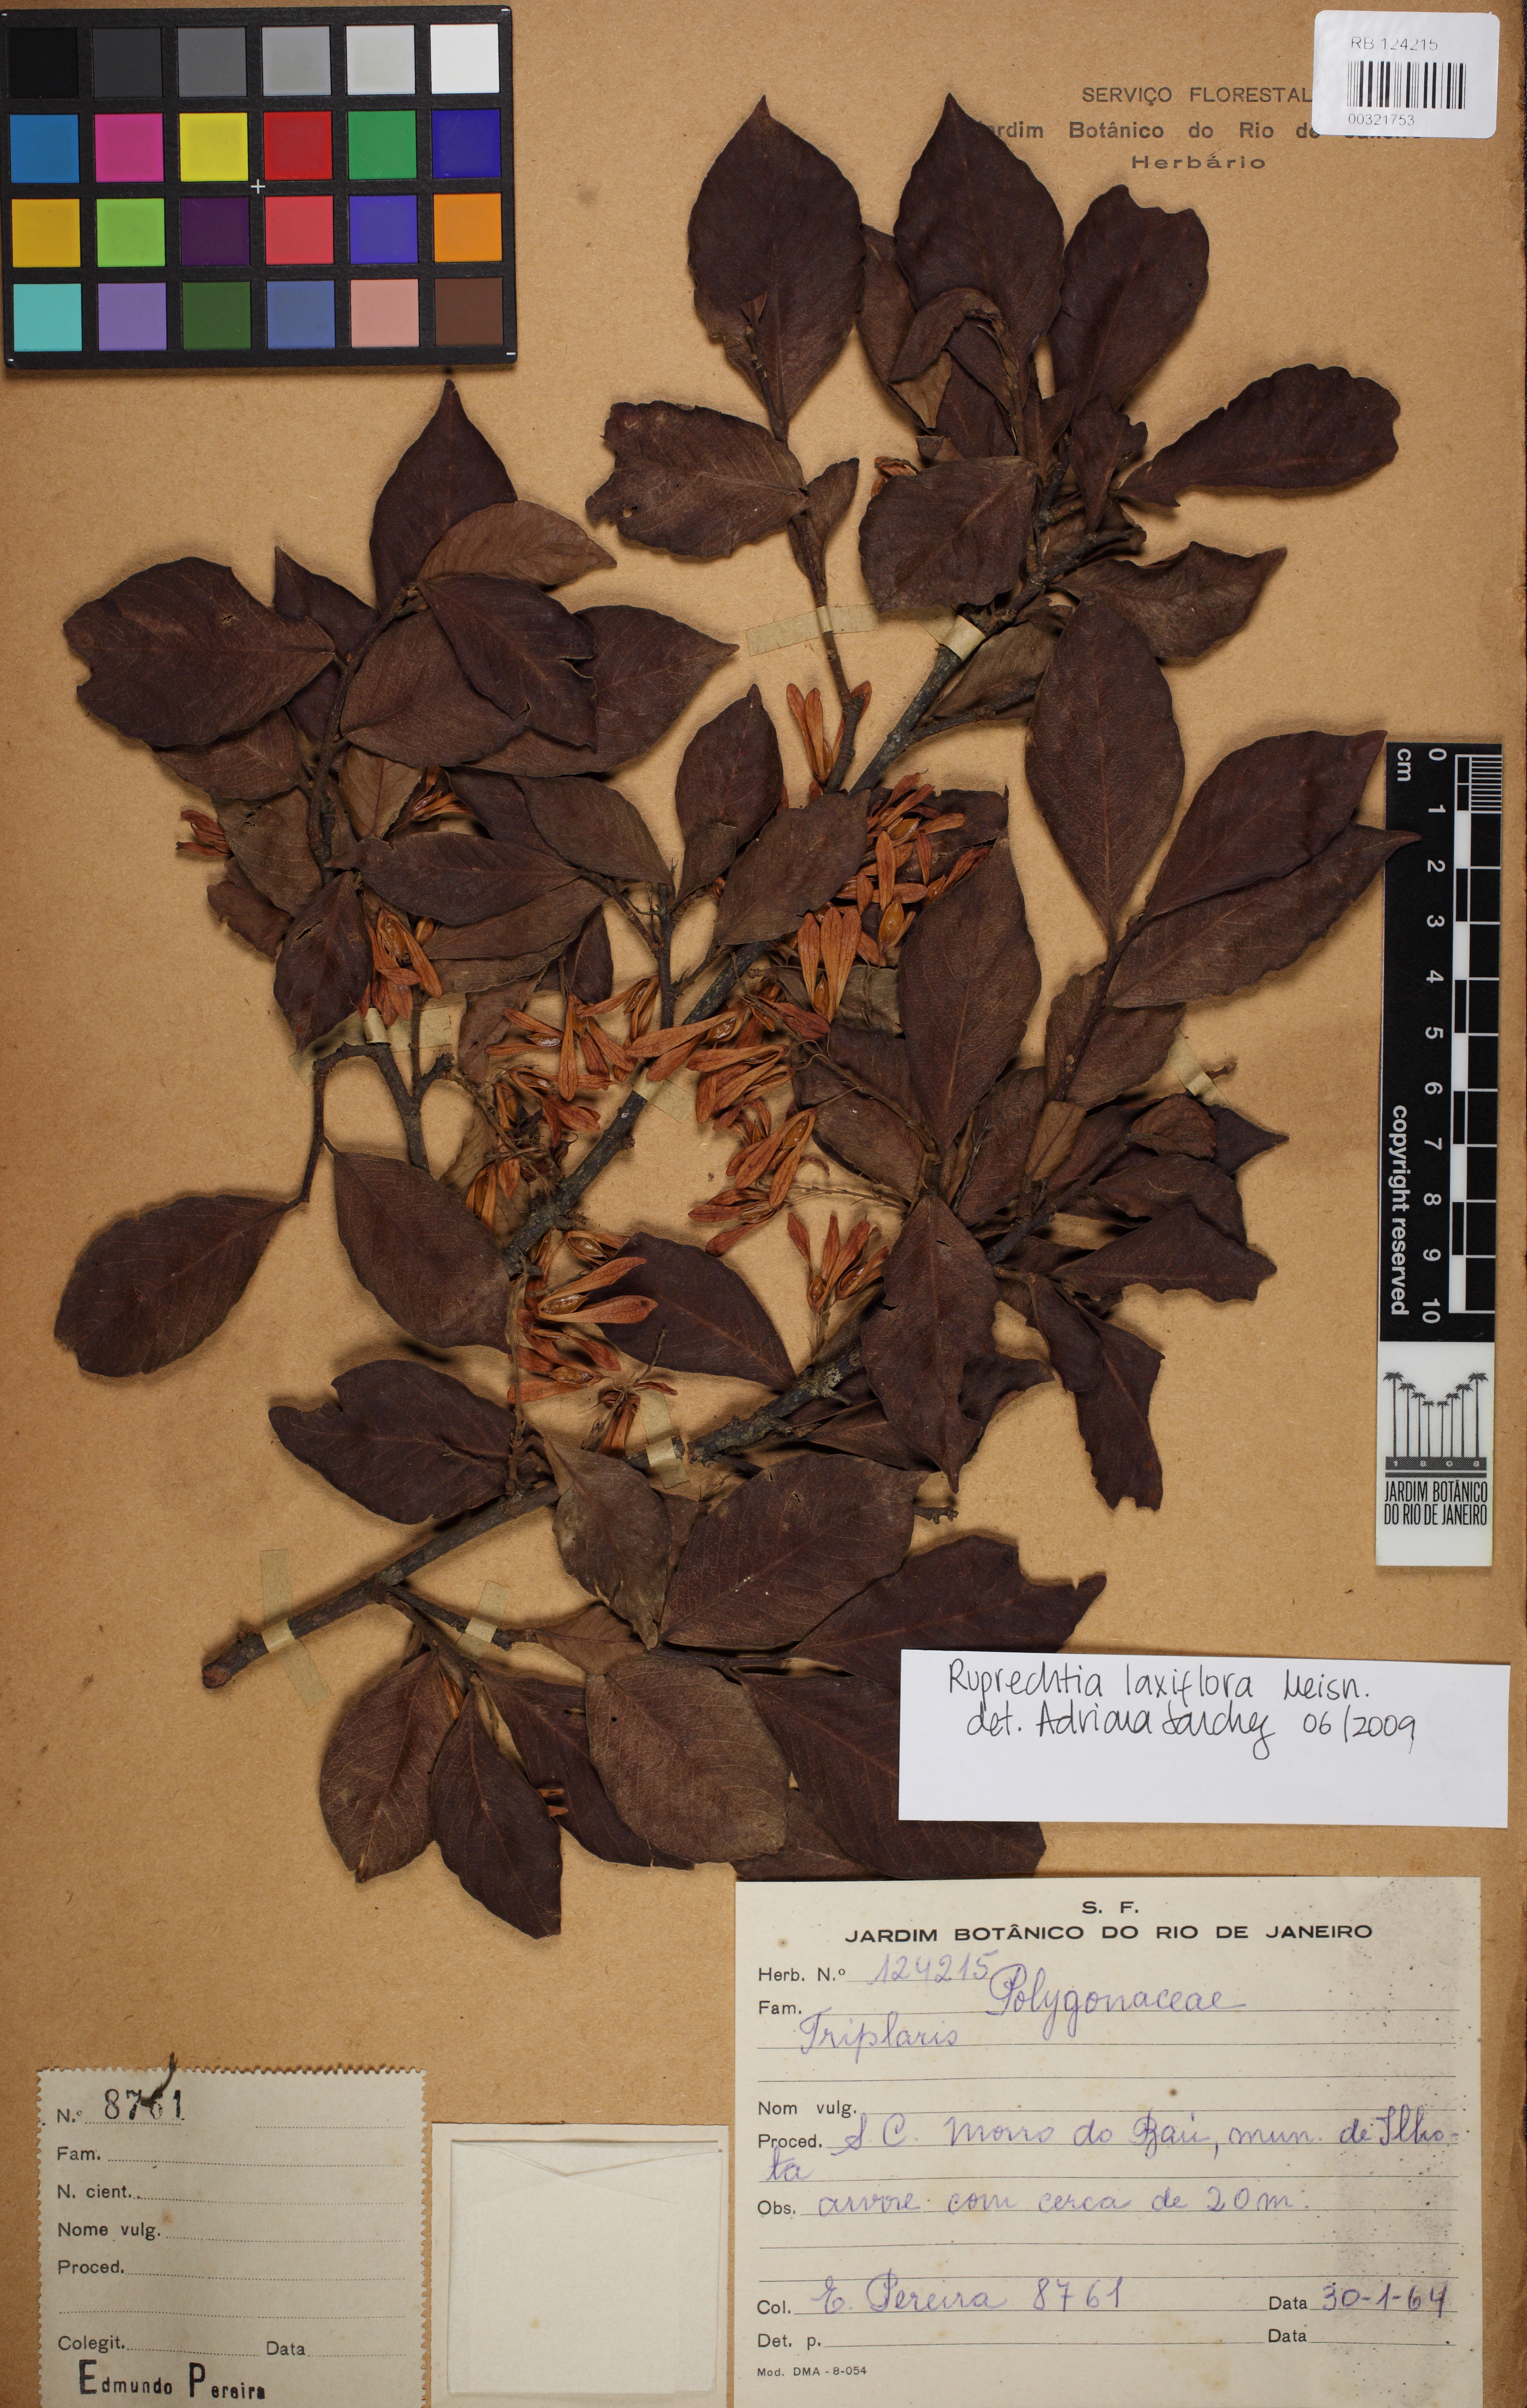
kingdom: Plantae
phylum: Tracheophyta
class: Magnoliopsida
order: Caryophyllales
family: Polygonaceae
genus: Ruprechtia
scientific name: Ruprechtia laxiflora
